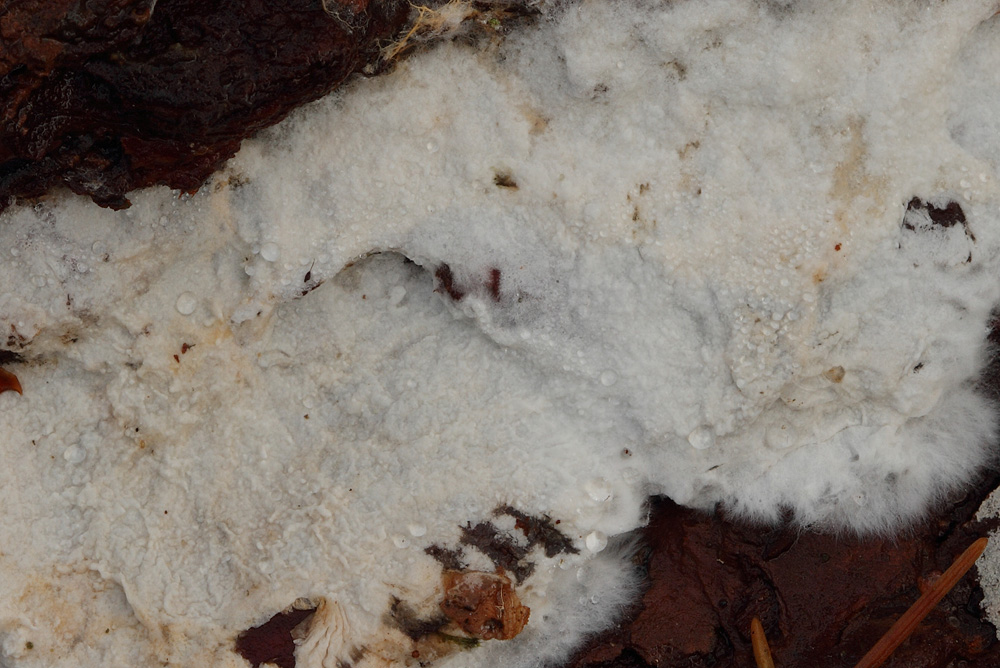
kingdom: Fungi
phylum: Basidiomycota
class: Agaricomycetes
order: Atheliales
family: Atheliaceae
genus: Athelia
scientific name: Athelia bombacina
